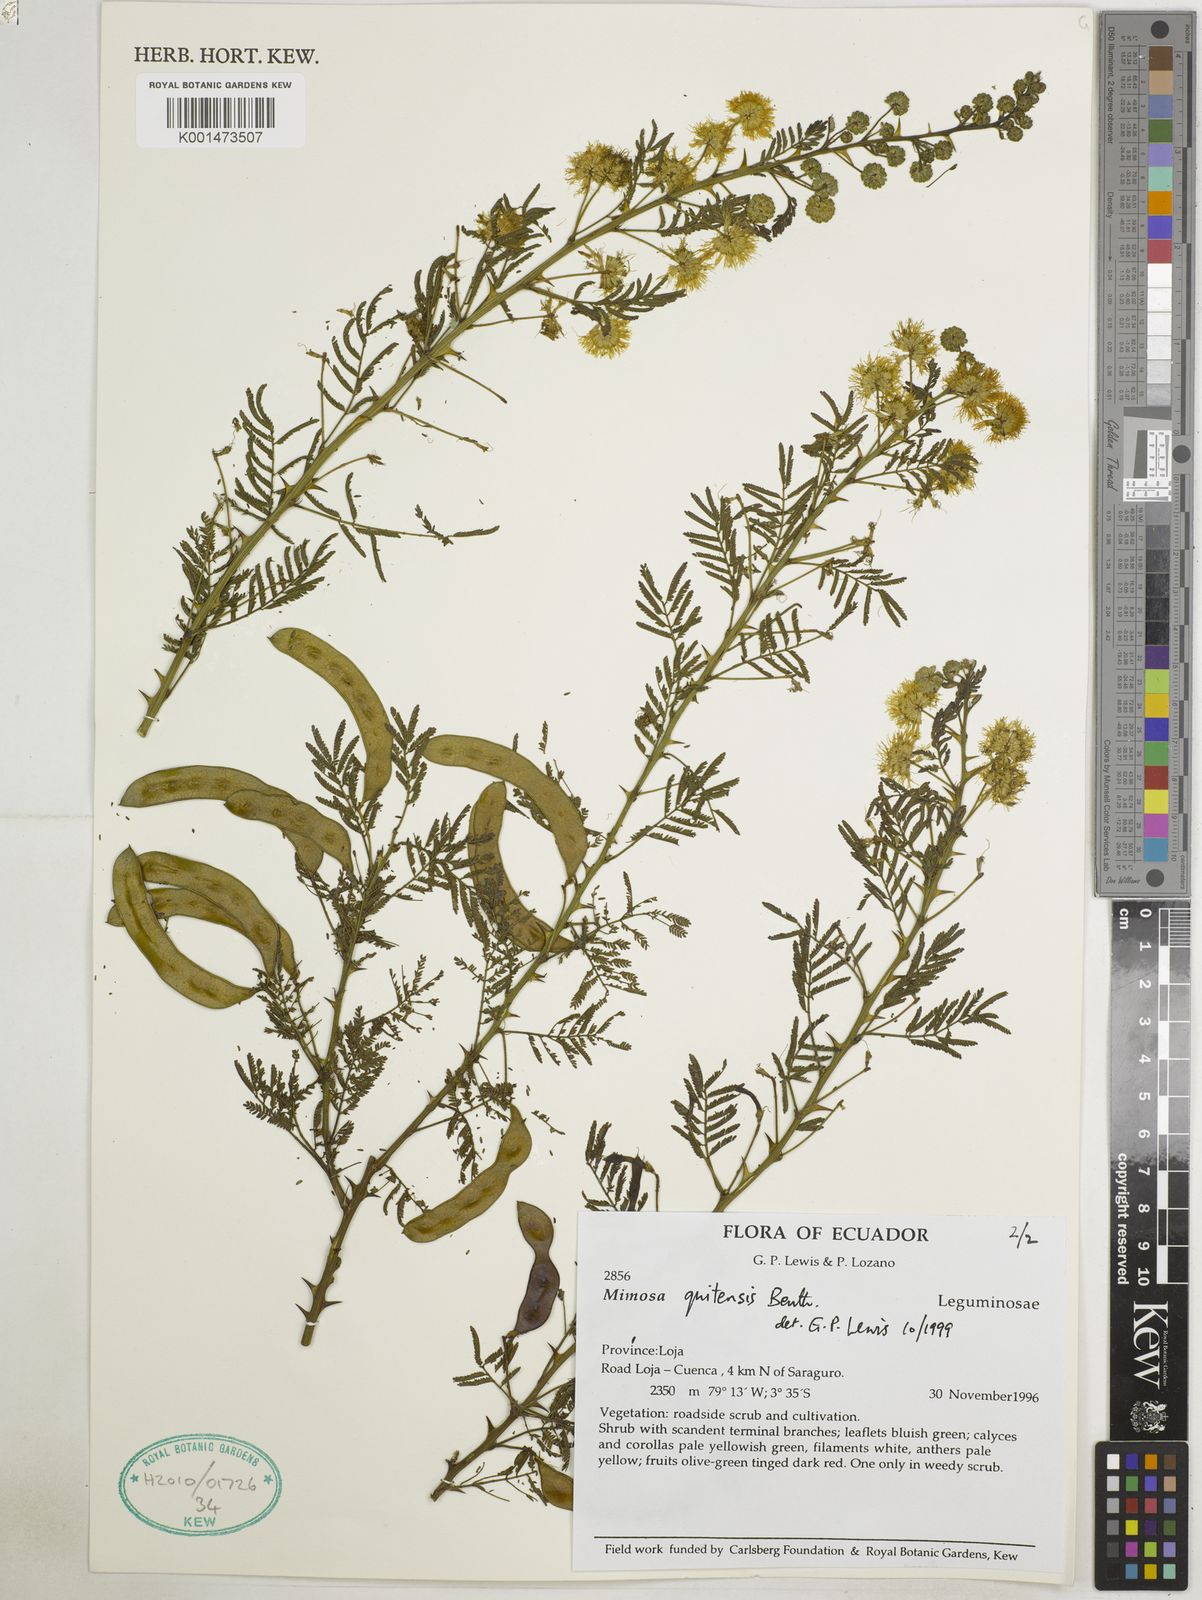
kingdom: Plantae
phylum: Tracheophyta
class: Magnoliopsida
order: Fabales
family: Fabaceae
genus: Mimosa
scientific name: Mimosa quitensis
